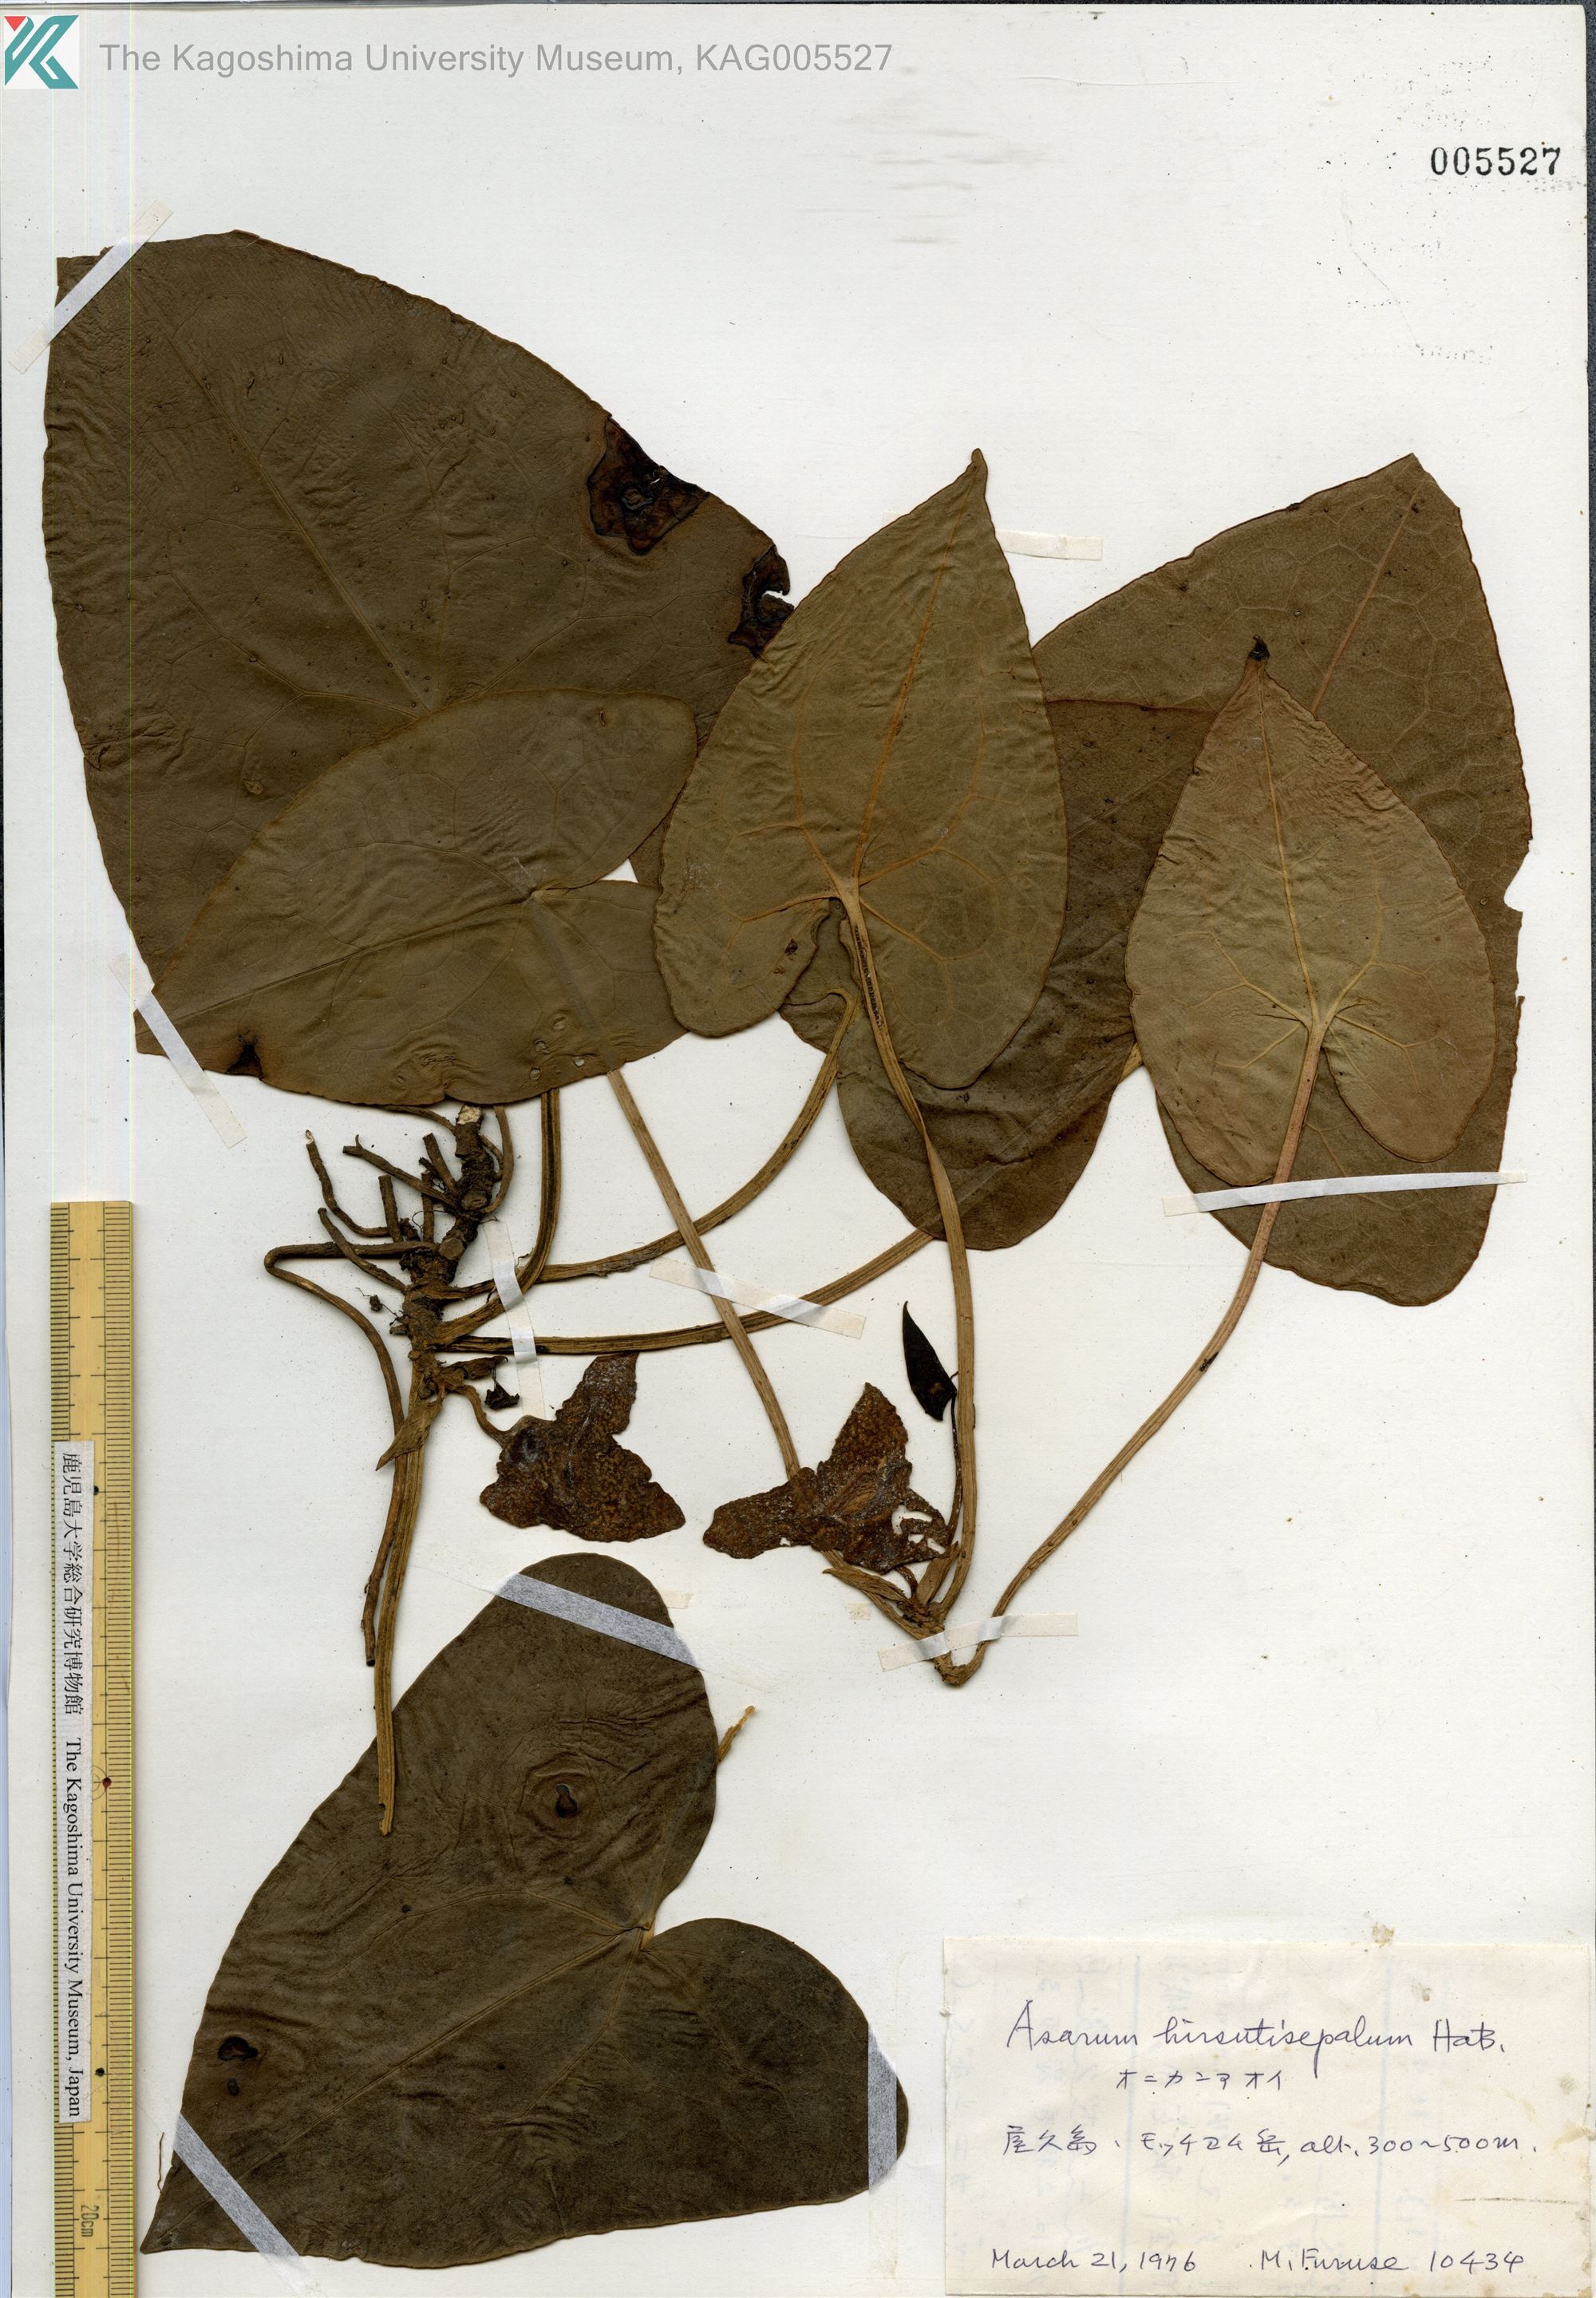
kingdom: Plantae
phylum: Tracheophyta
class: Magnoliopsida
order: Piperales
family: Aristolochiaceae
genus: Asarum
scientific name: Asarum yakusimense
